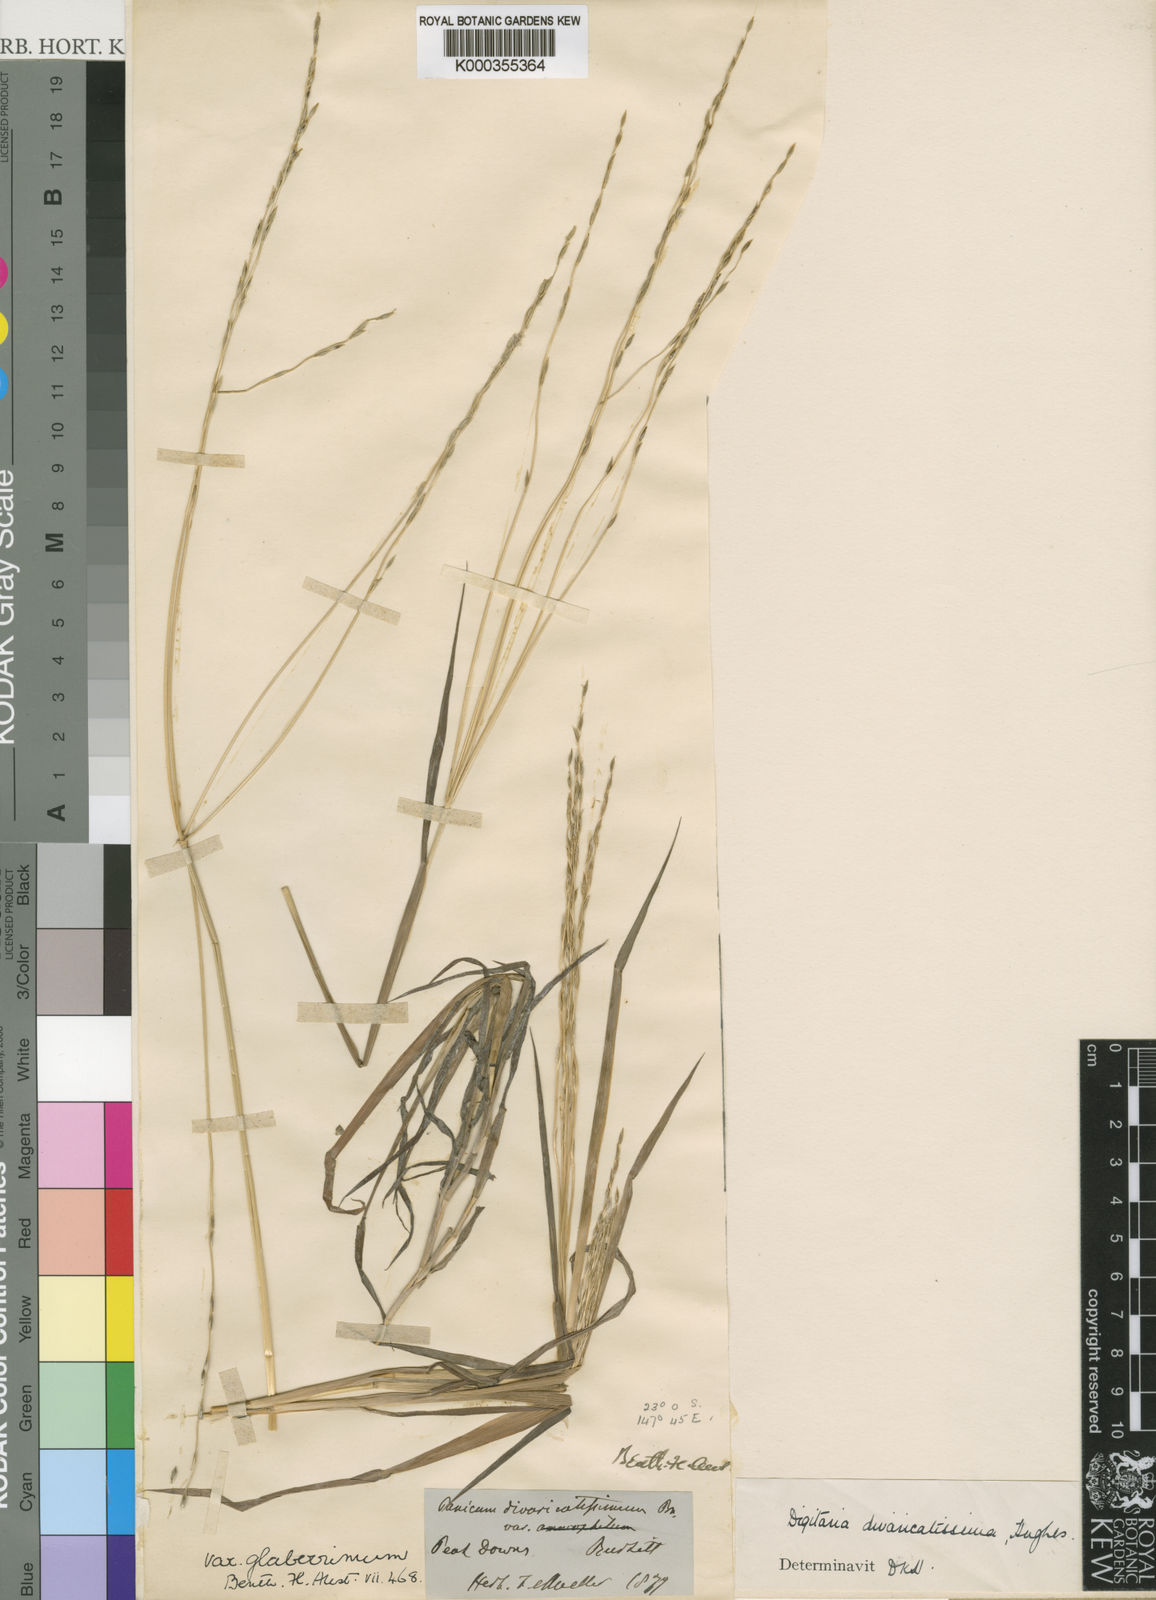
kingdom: Plantae
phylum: Tracheophyta
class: Liliopsida
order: Poales
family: Poaceae
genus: Digitaria
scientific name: Digitaria divaricatissima
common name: Crabgrass
